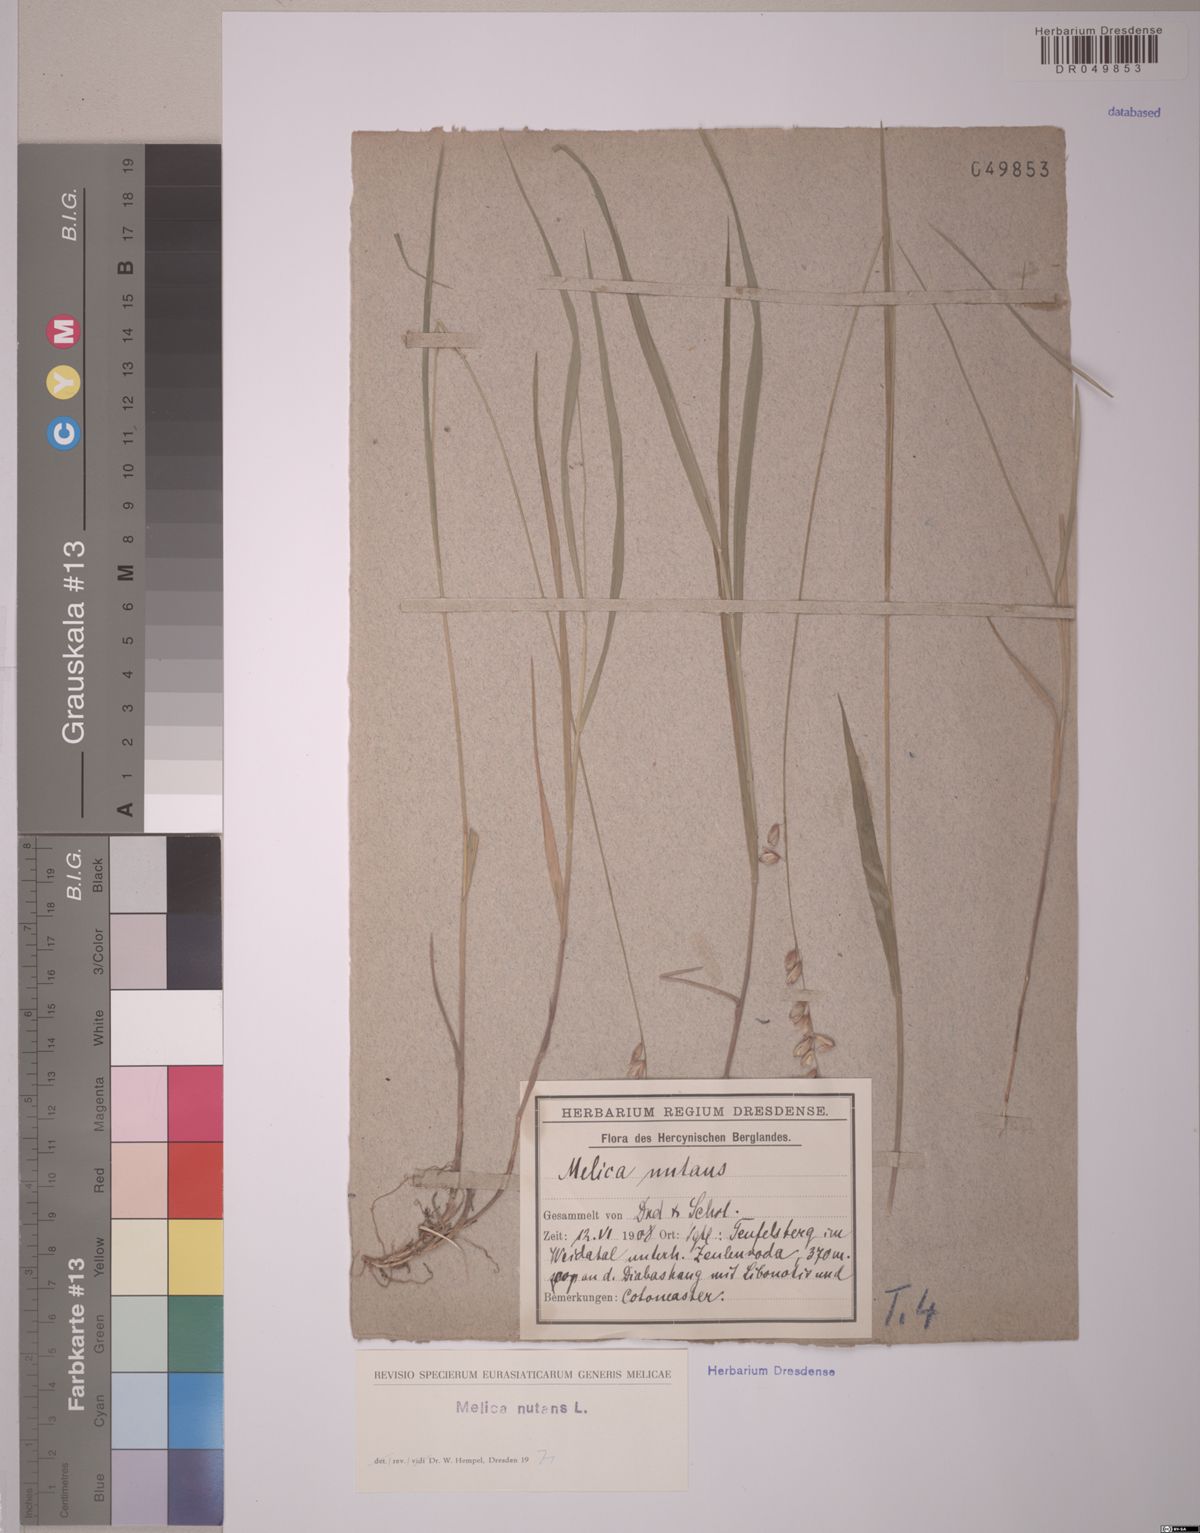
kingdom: Plantae
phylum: Tracheophyta
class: Liliopsida
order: Poales
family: Poaceae
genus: Melica
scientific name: Melica nutans
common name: Mountain melick
